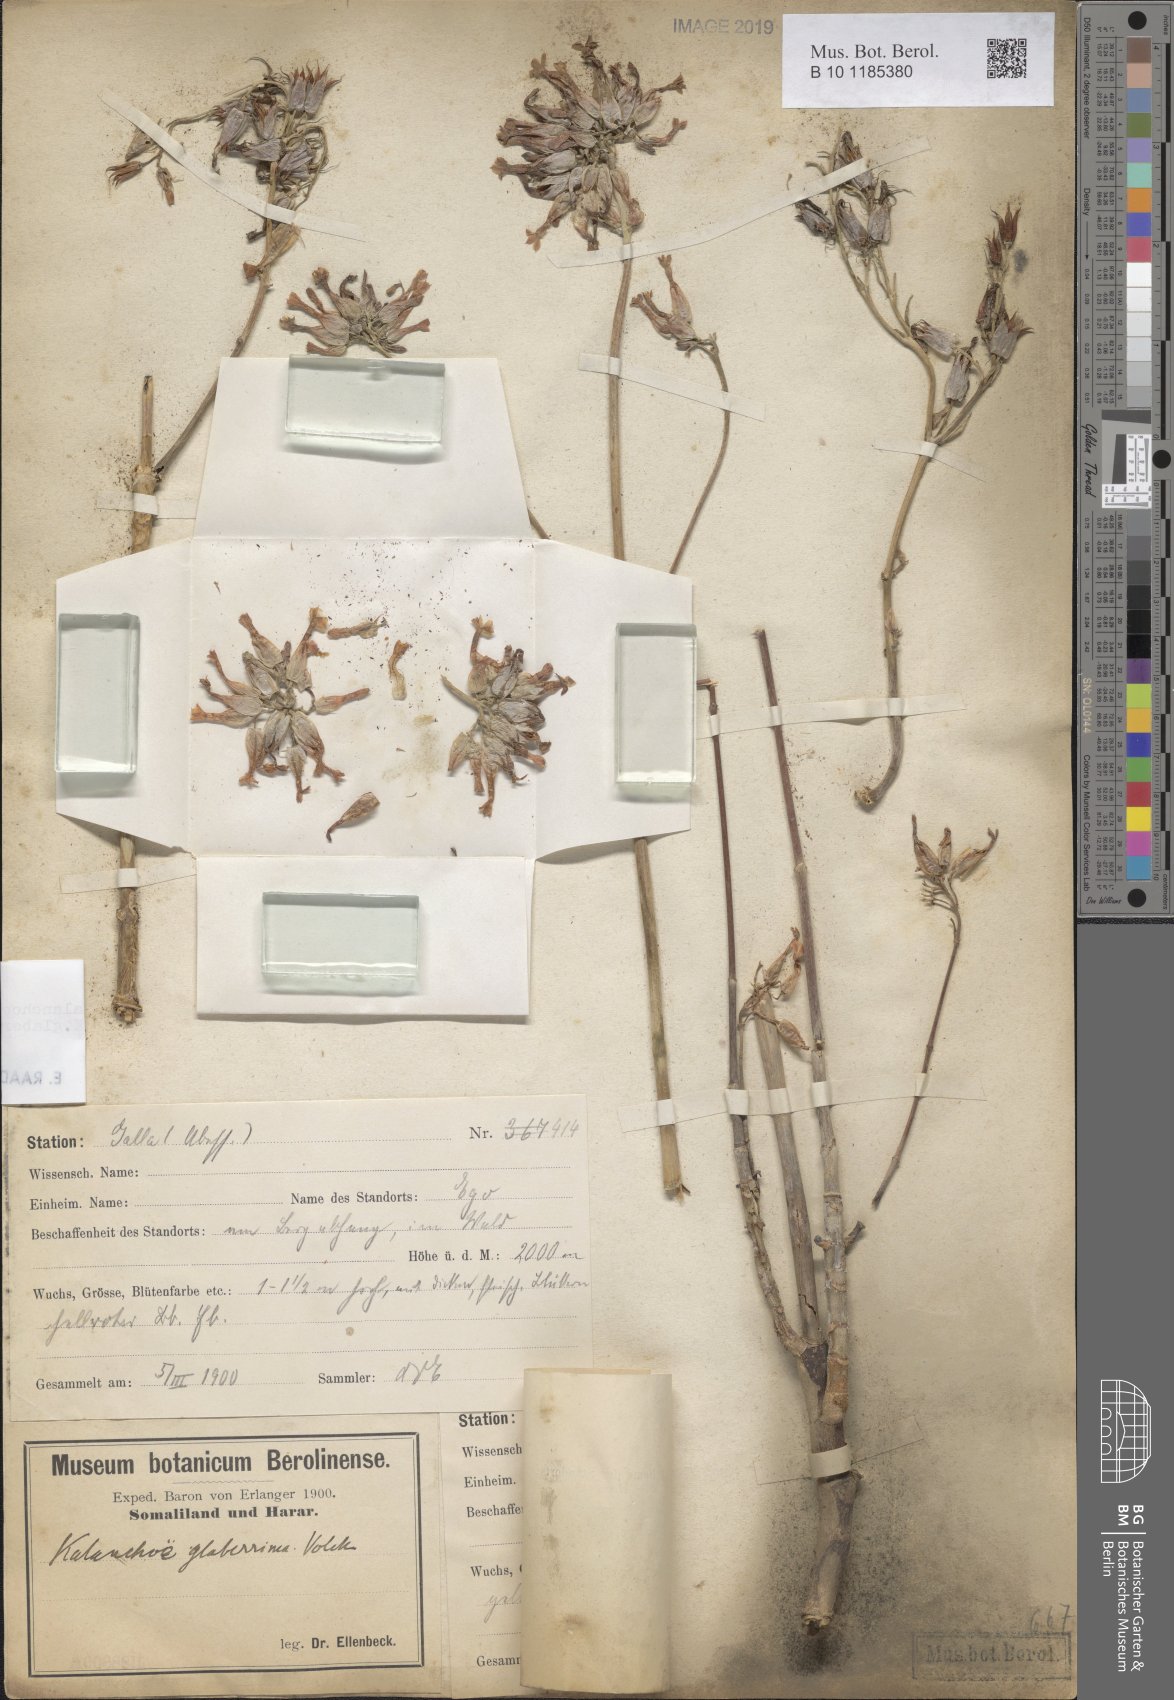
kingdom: Plantae
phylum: Tracheophyta
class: Magnoliopsida
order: Saxifragales
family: Crassulaceae
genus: Kalanchoe
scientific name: Kalanchoe densiflora
